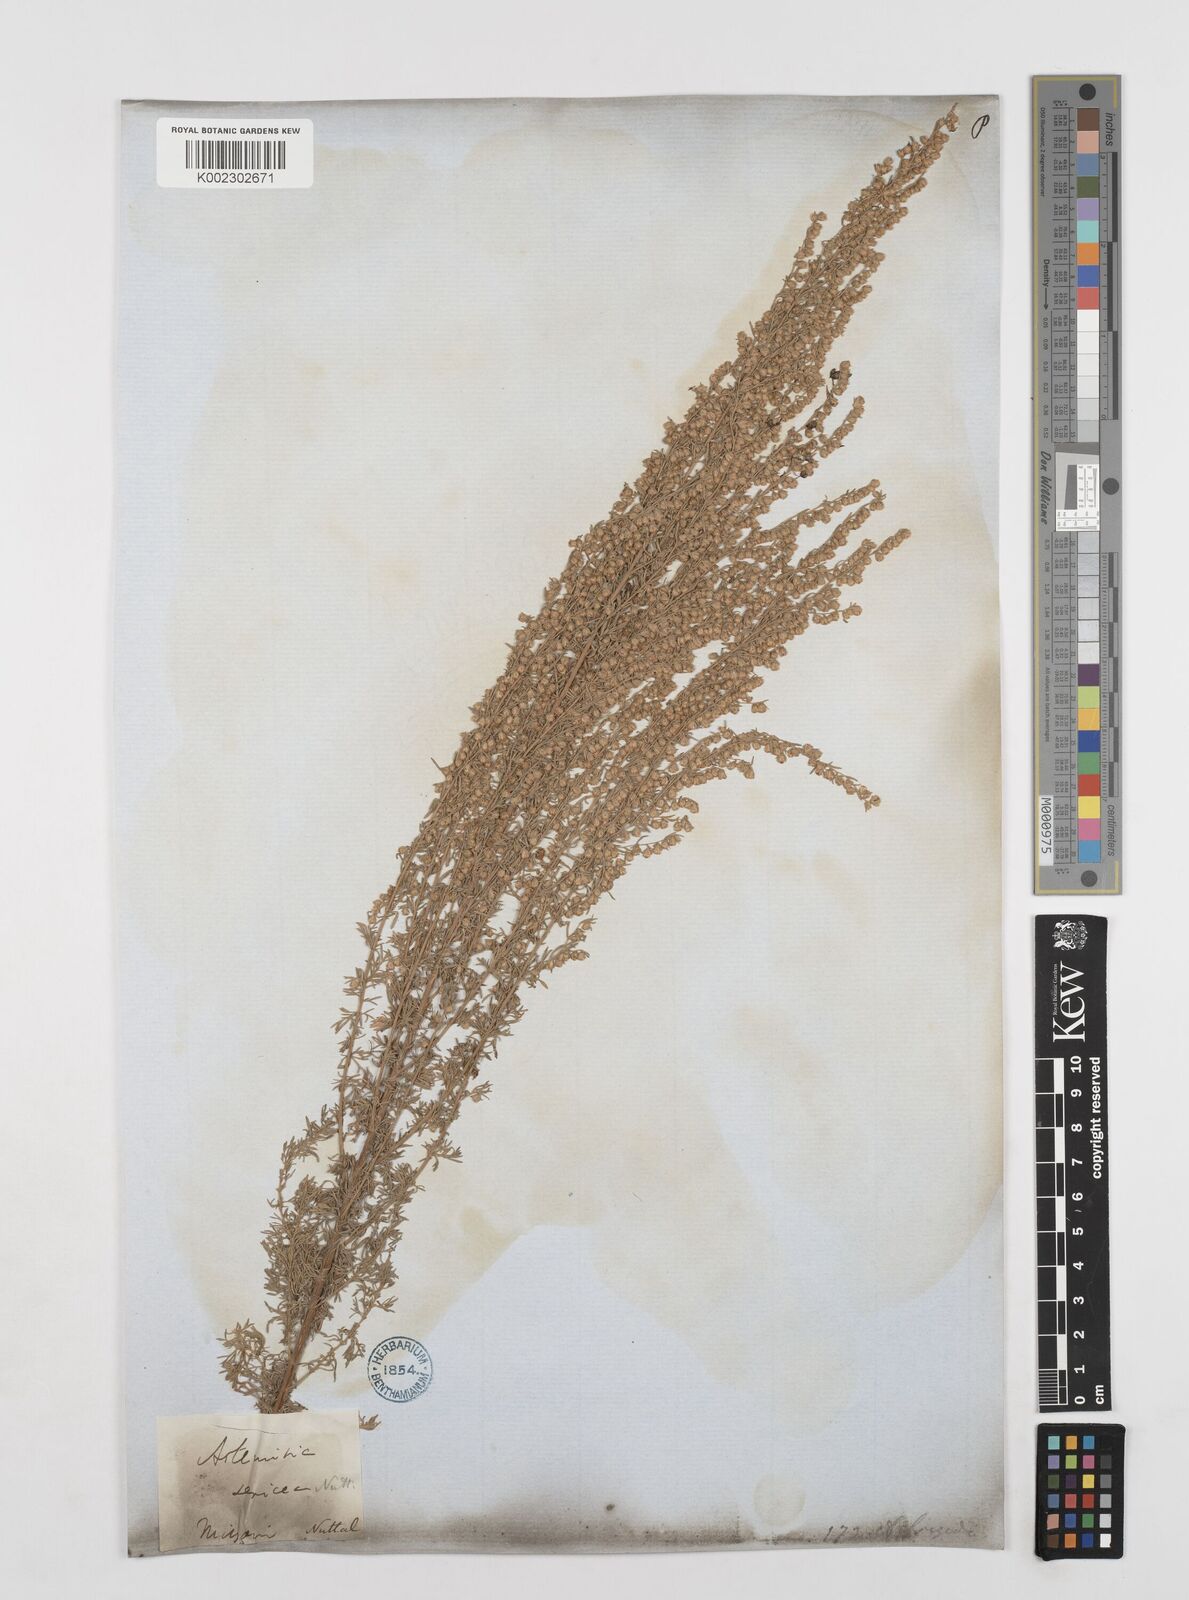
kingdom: Plantae
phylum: Tracheophyta
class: Magnoliopsida
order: Asterales
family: Asteraceae
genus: Artemisia
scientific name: Artemisia frigida
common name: Prairie sagewort
